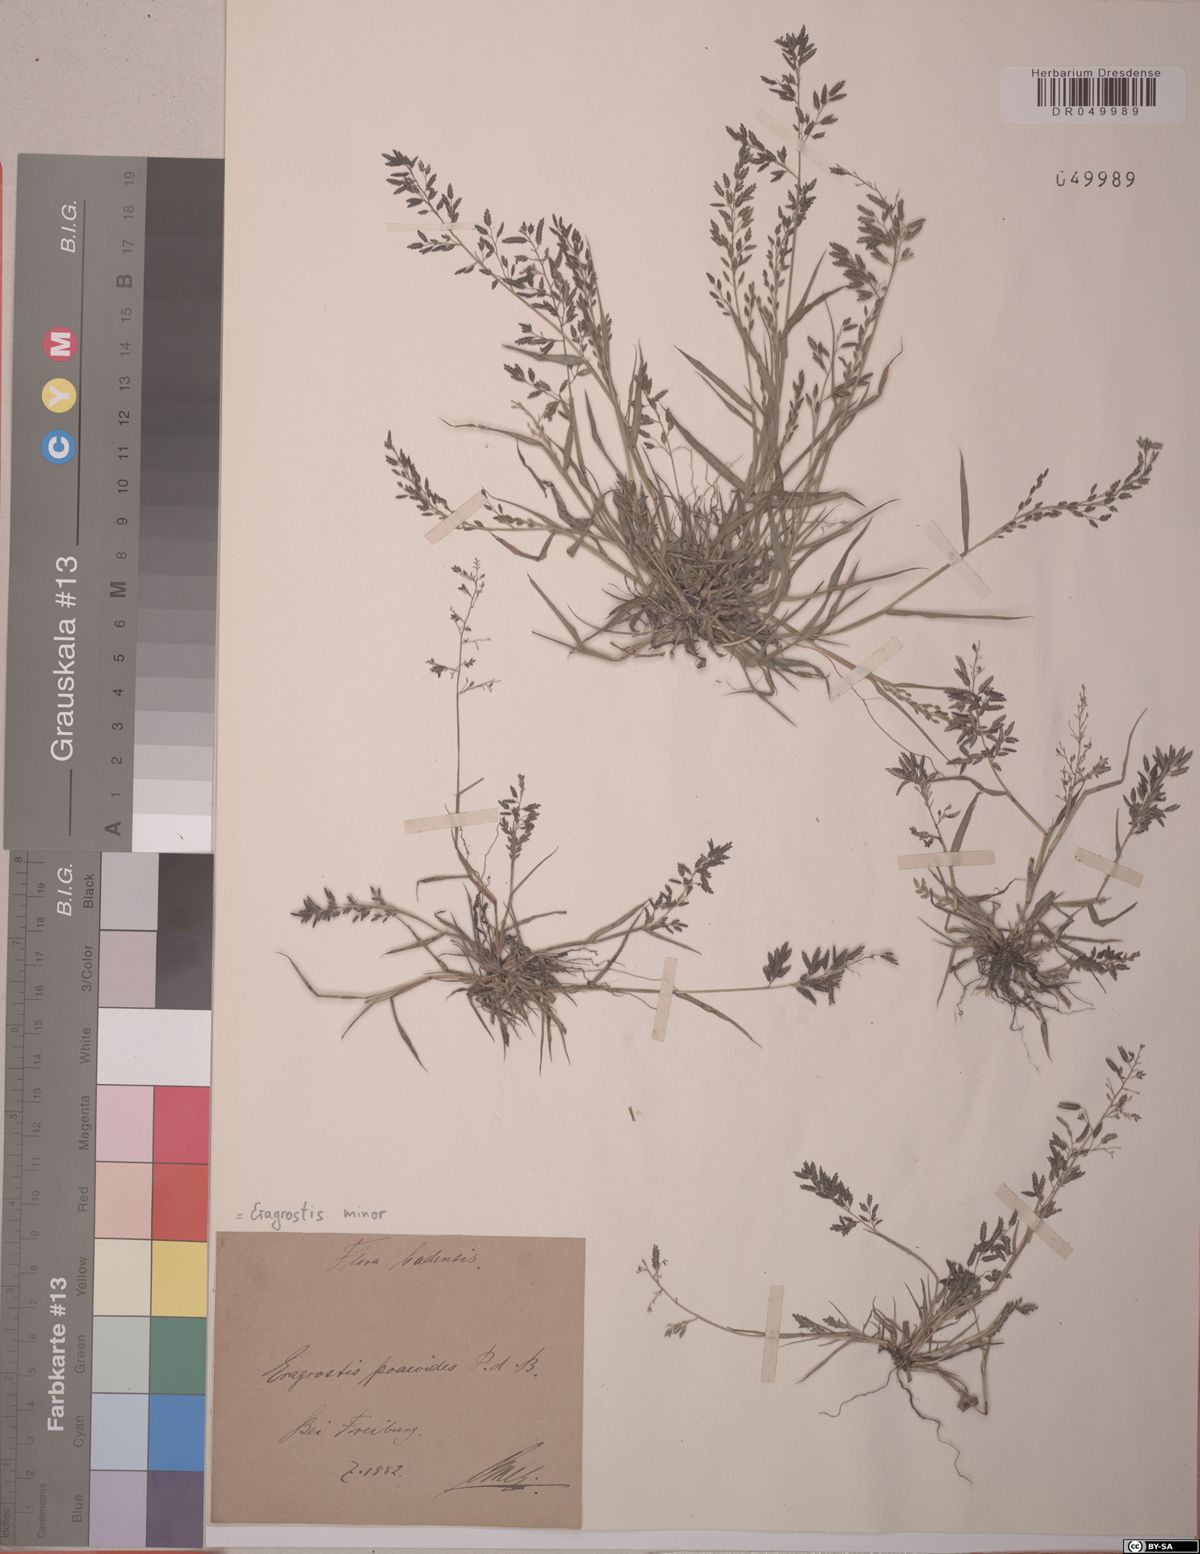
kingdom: Plantae
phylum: Tracheophyta
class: Liliopsida
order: Poales
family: Poaceae
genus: Eragrostis
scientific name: Eragrostis minor
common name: Small love-grass
